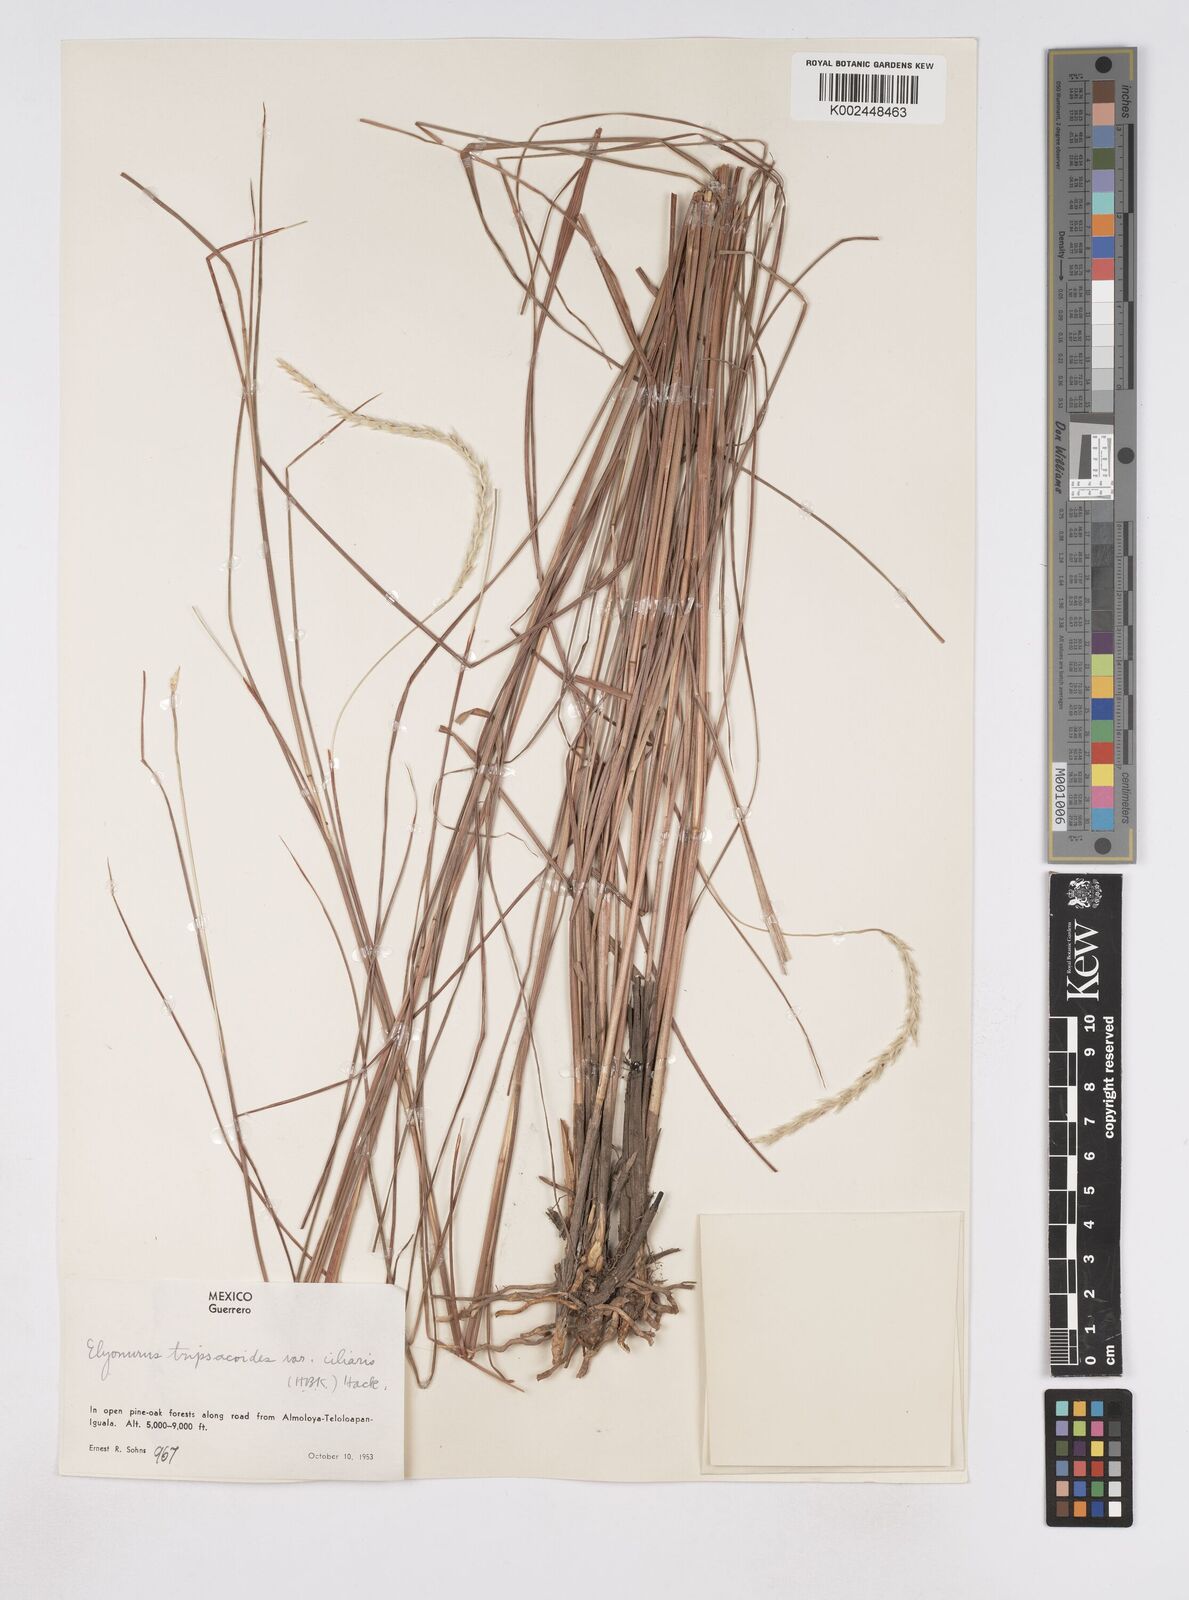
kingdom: Plantae
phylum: Tracheophyta
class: Liliopsida
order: Poales
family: Poaceae
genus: Elionurus
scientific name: Elionurus ciliaris
